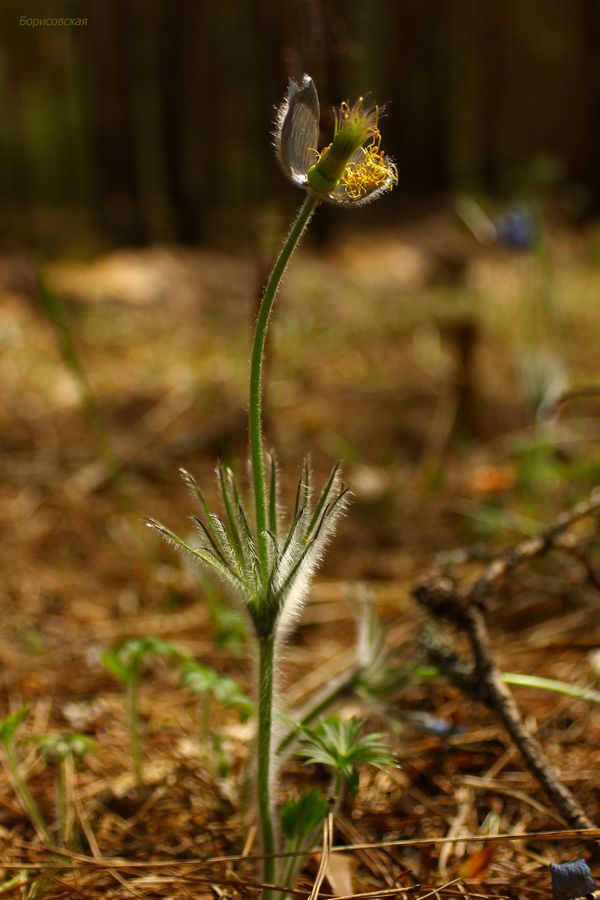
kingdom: Plantae
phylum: Tracheophyta
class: Magnoliopsida
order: Ranunculales
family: Ranunculaceae
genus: Pulsatilla
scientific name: Pulsatilla herba-somnii
